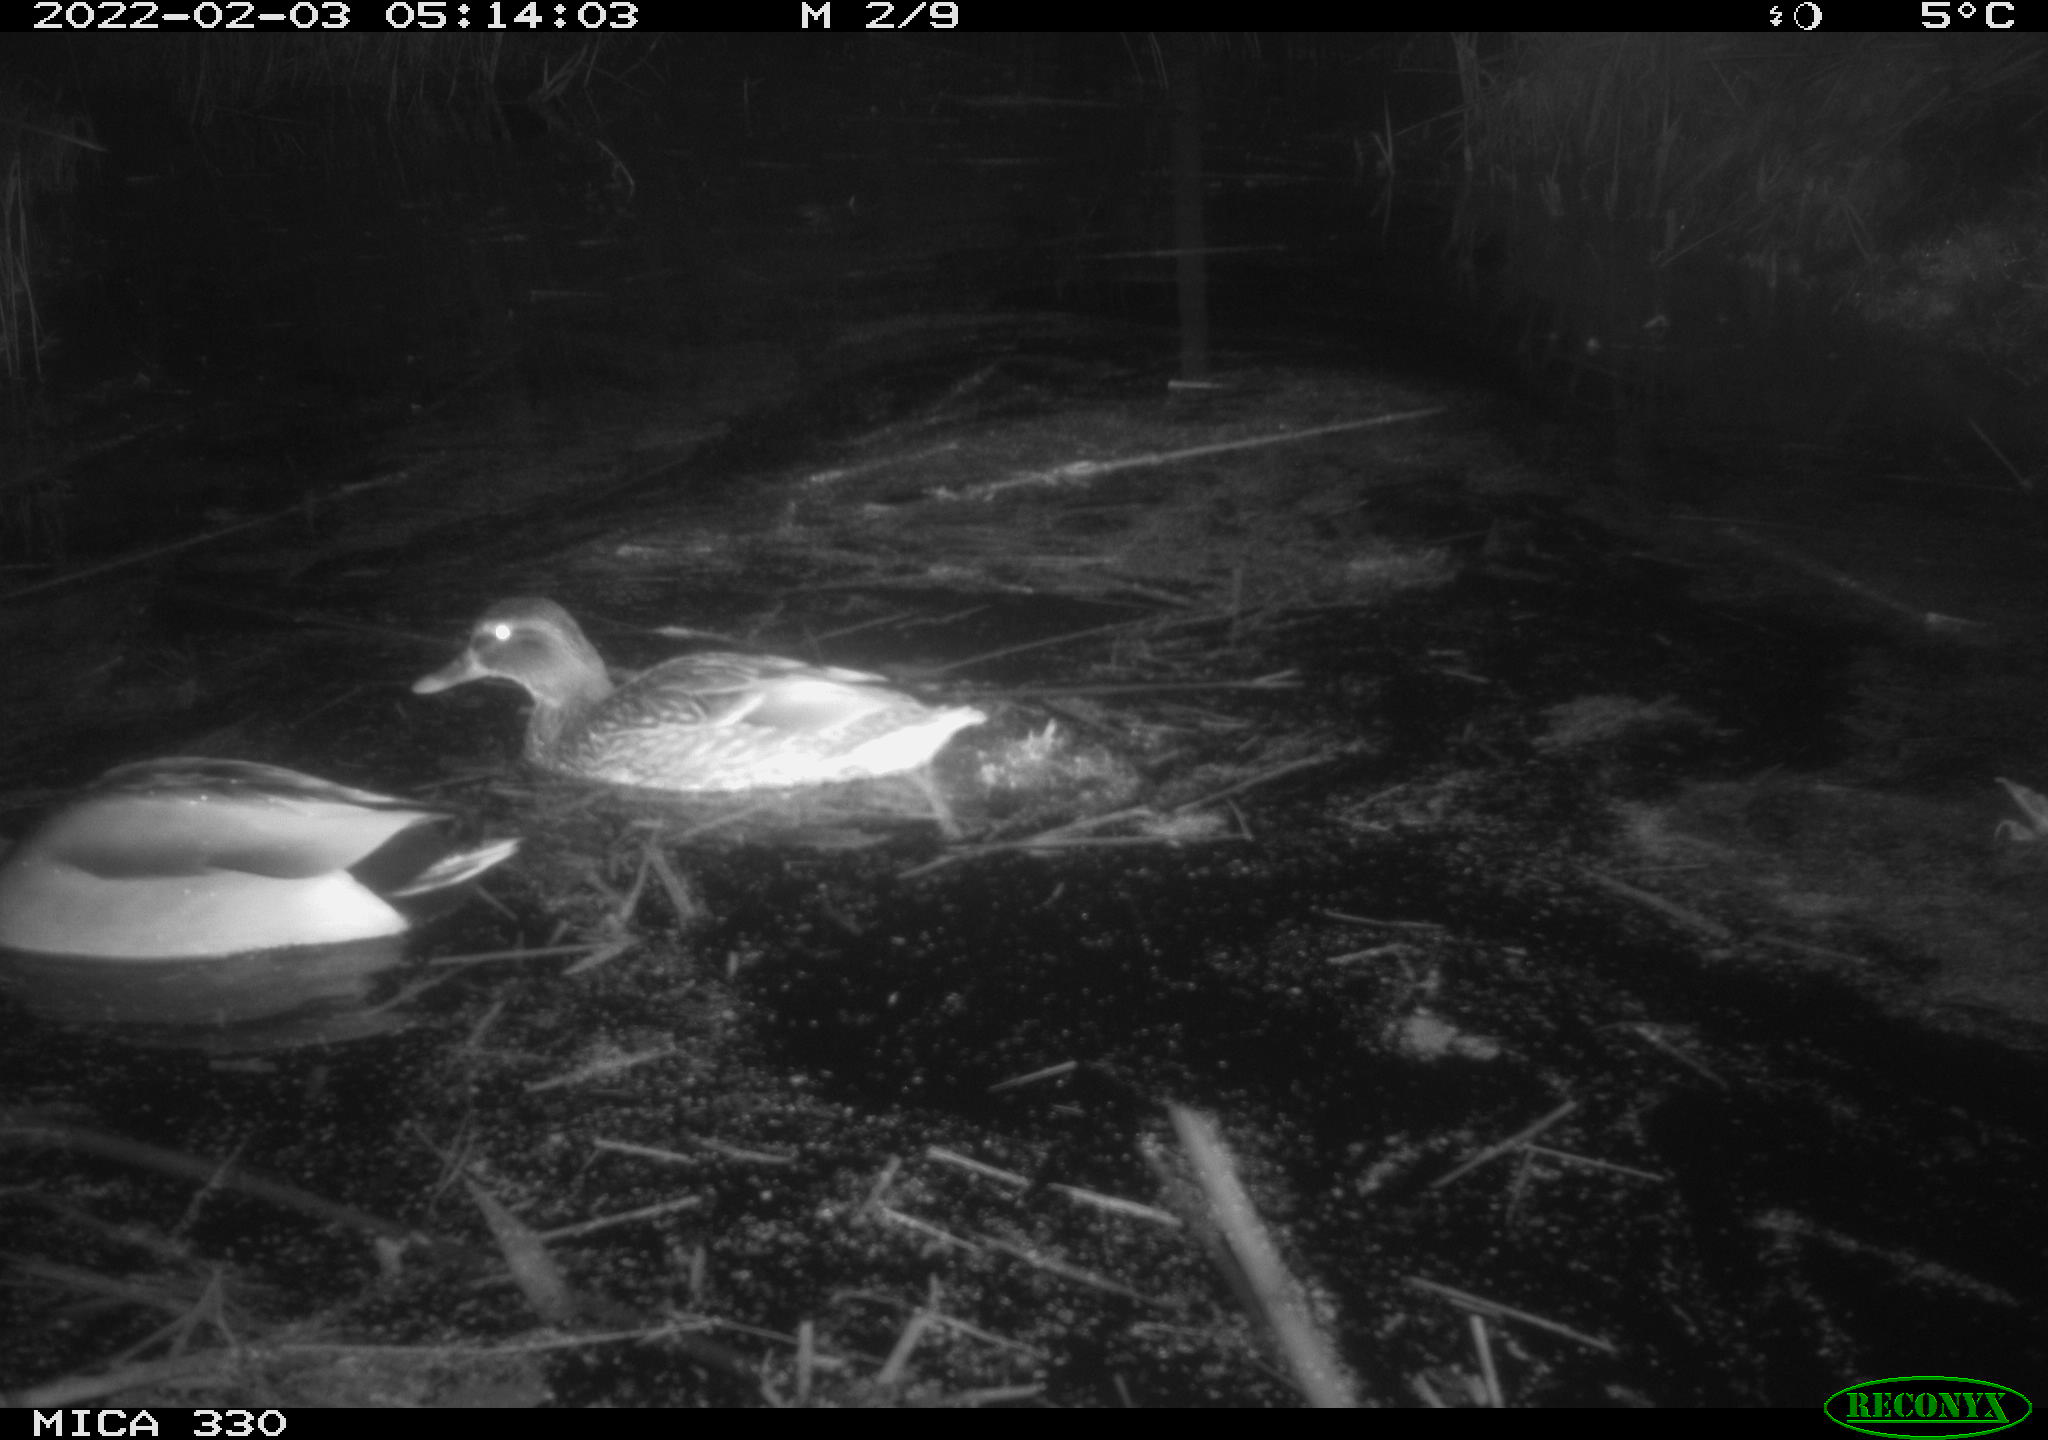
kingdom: Animalia
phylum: Chordata
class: Aves
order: Anseriformes
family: Anatidae
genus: Anas
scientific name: Anas platyrhynchos
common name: Mallard
